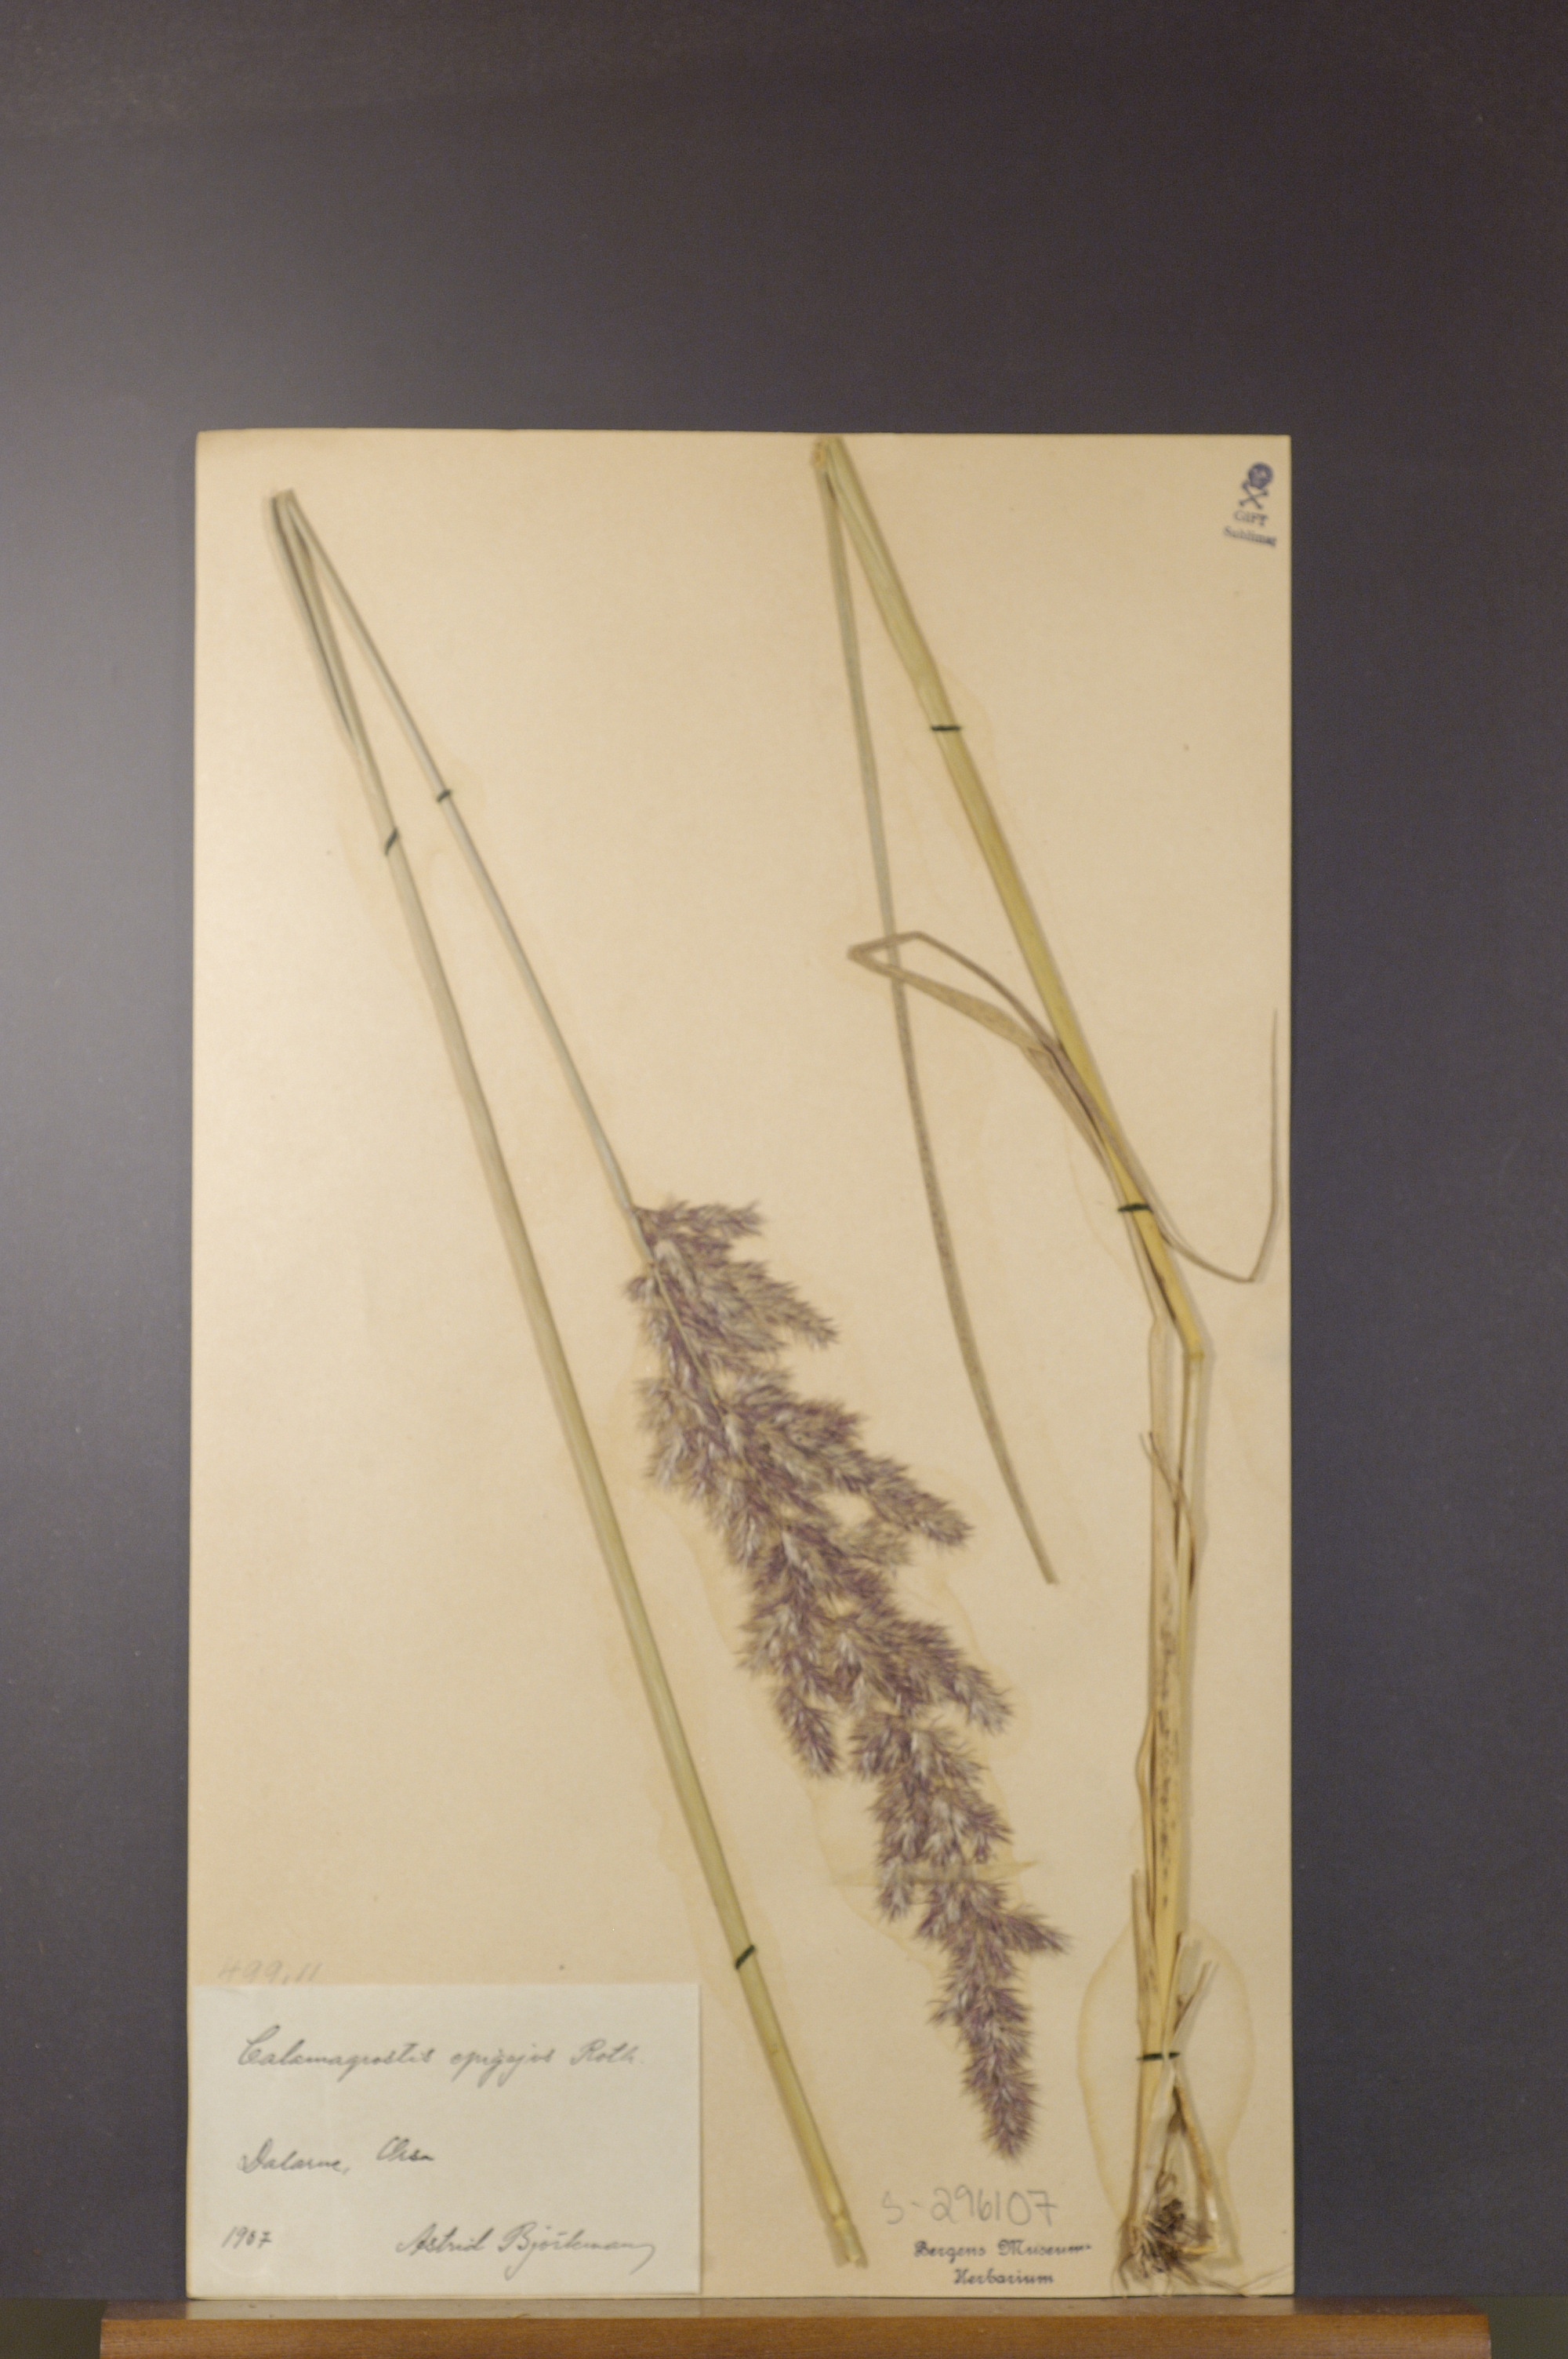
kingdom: Plantae
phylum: Tracheophyta
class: Liliopsida
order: Poales
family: Poaceae
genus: Calamagrostis
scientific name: Calamagrostis epigejos
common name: Wood small-reed
